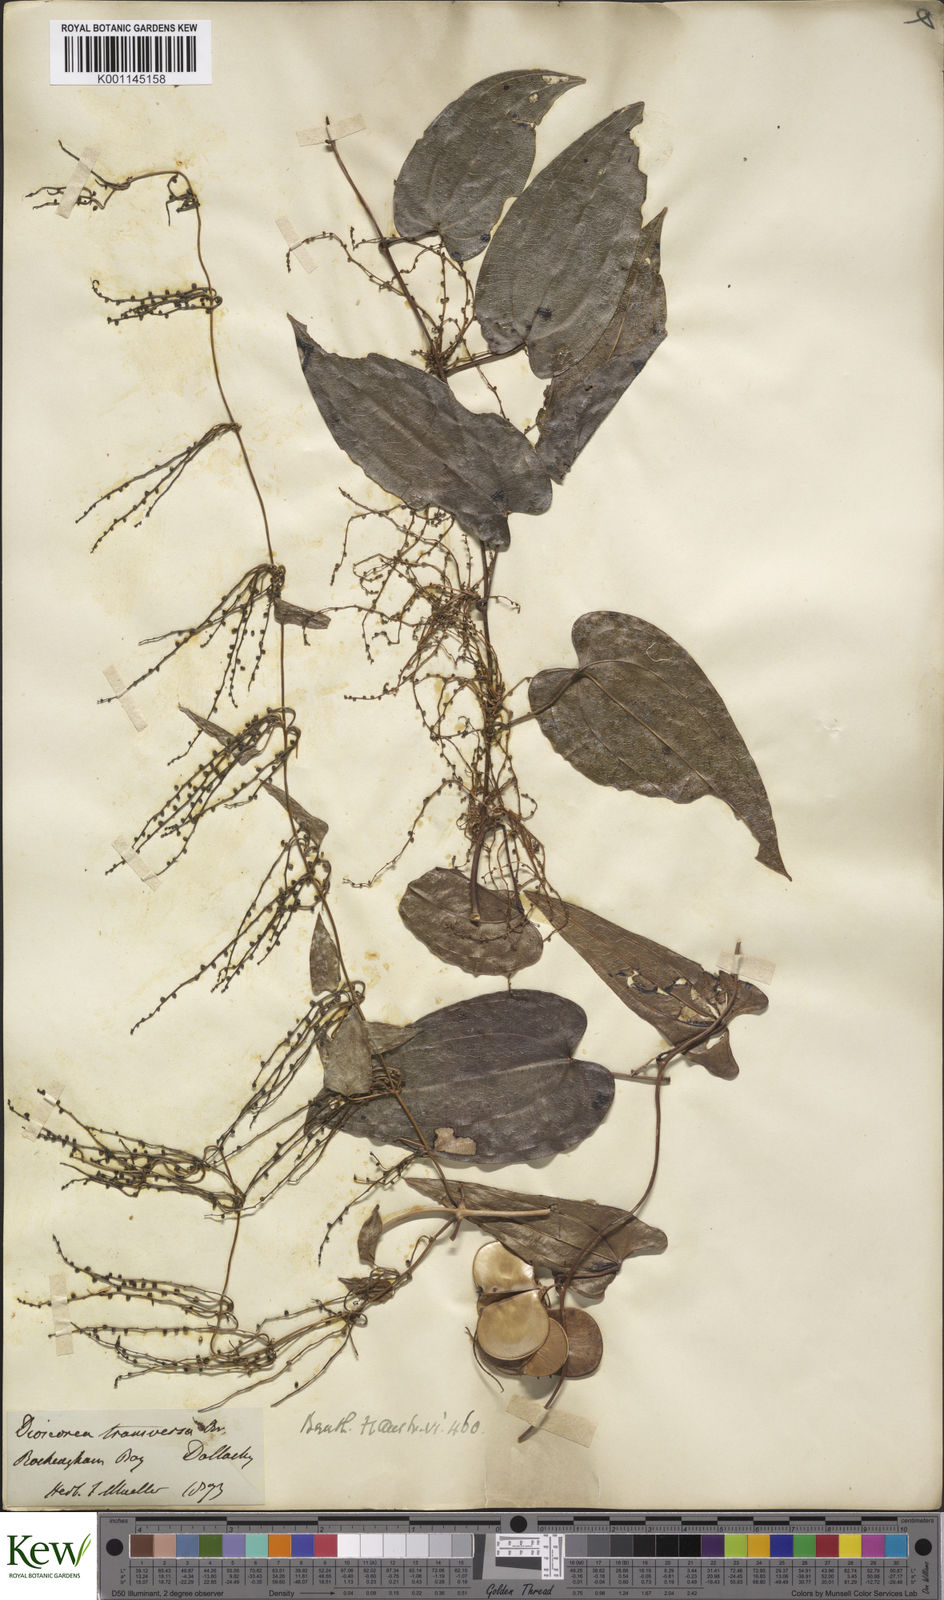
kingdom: Plantae
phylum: Tracheophyta
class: Liliopsida
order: Dioscoreales
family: Dioscoreaceae
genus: Dioscorea
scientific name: Dioscorea transversa
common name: Long yam
